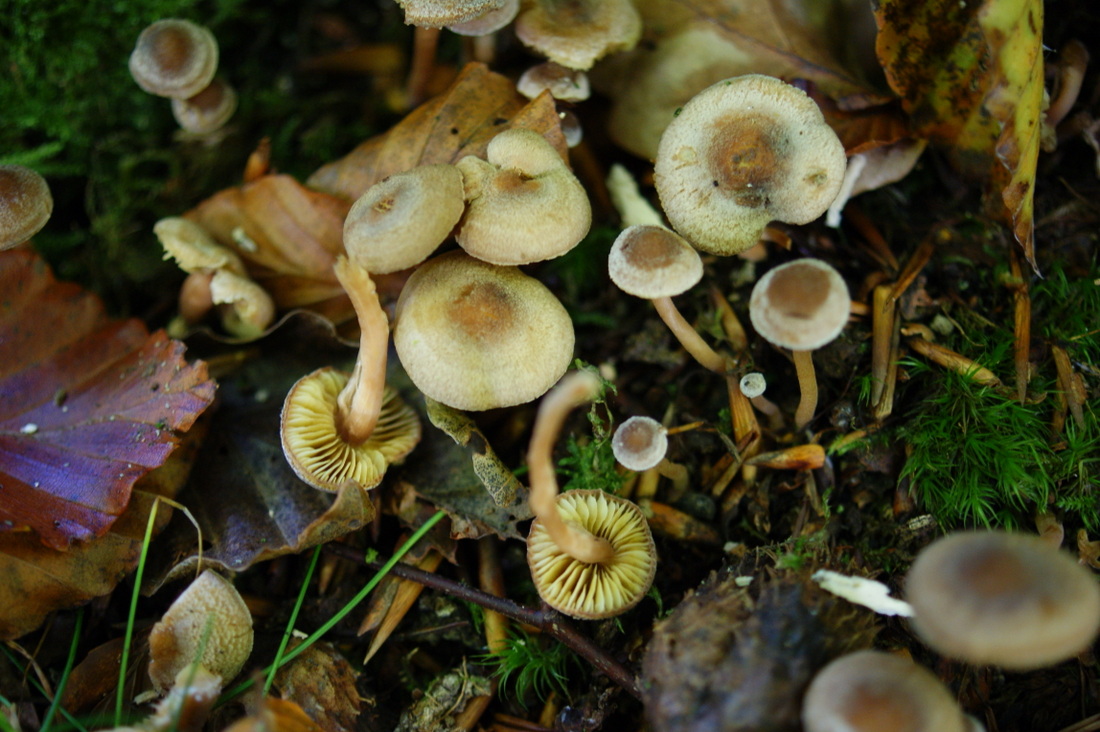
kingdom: Fungi
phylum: Basidiomycota
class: Agaricomycetes
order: Agaricales
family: Inocybaceae
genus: Inocybe
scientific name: Inocybe petiginosa
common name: liden trævlhat
